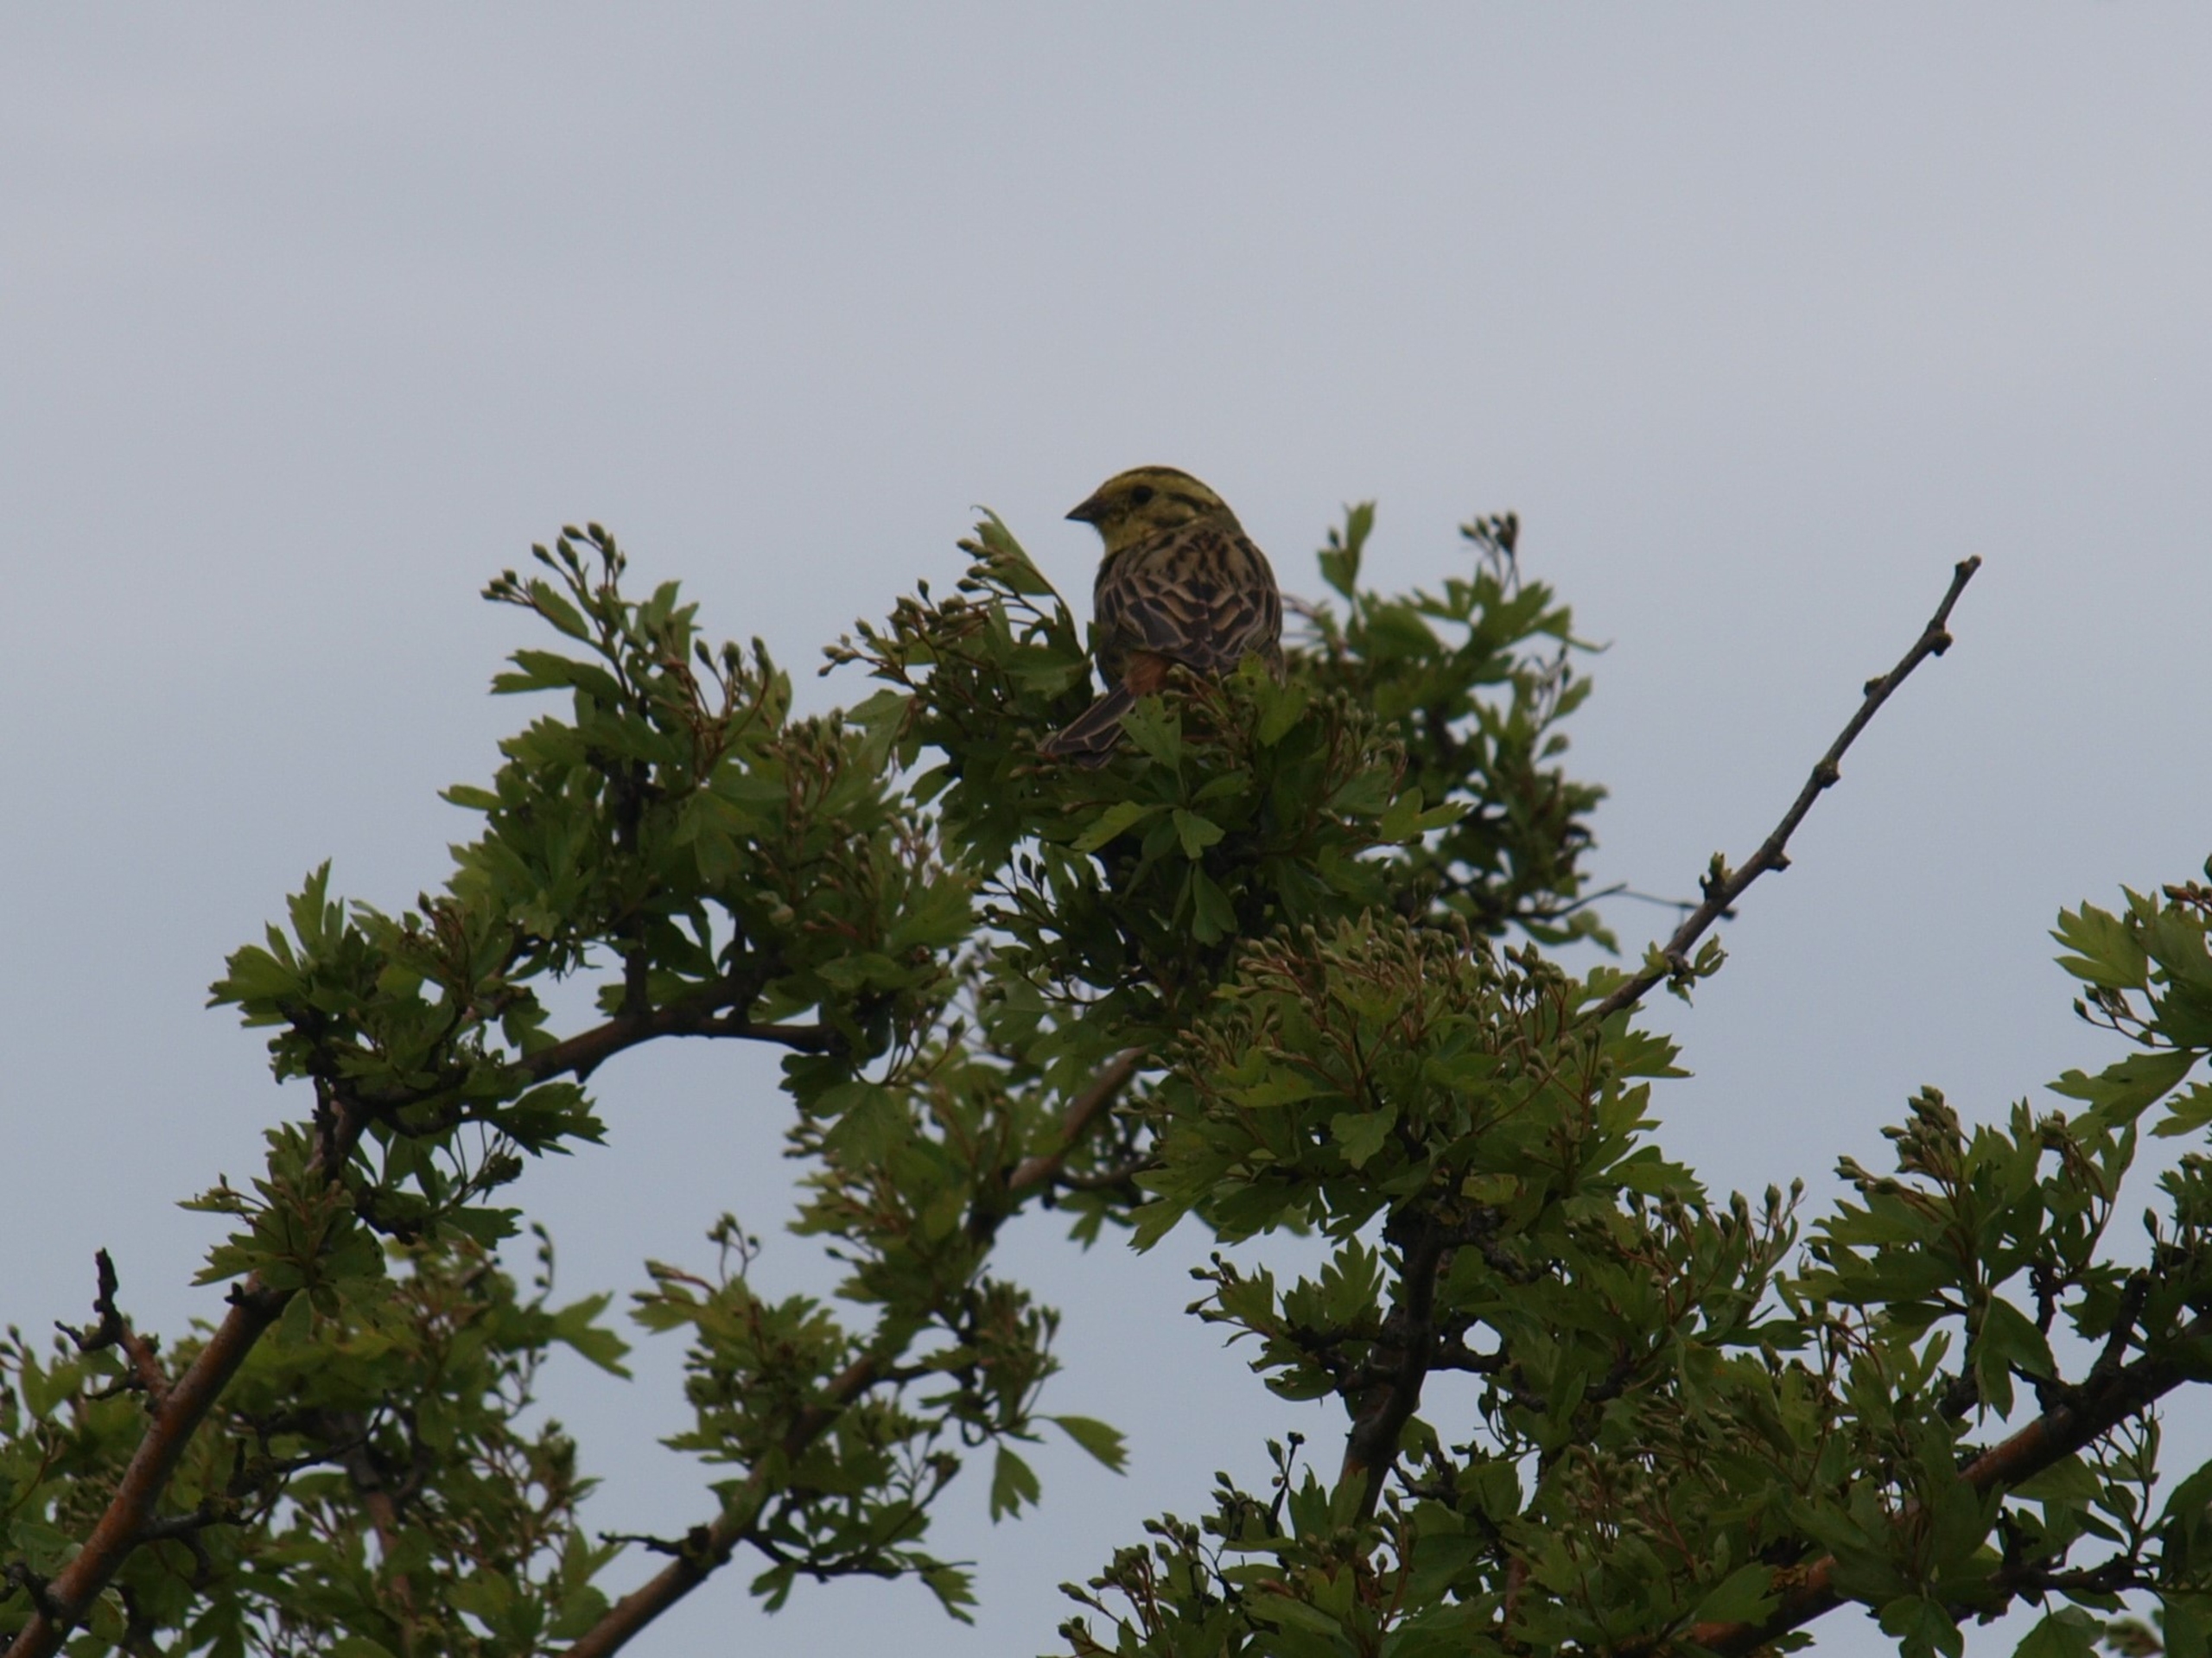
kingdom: Animalia
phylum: Chordata
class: Aves
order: Passeriformes
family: Emberizidae
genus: Emberiza
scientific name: Emberiza citrinella
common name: Gulspurv
